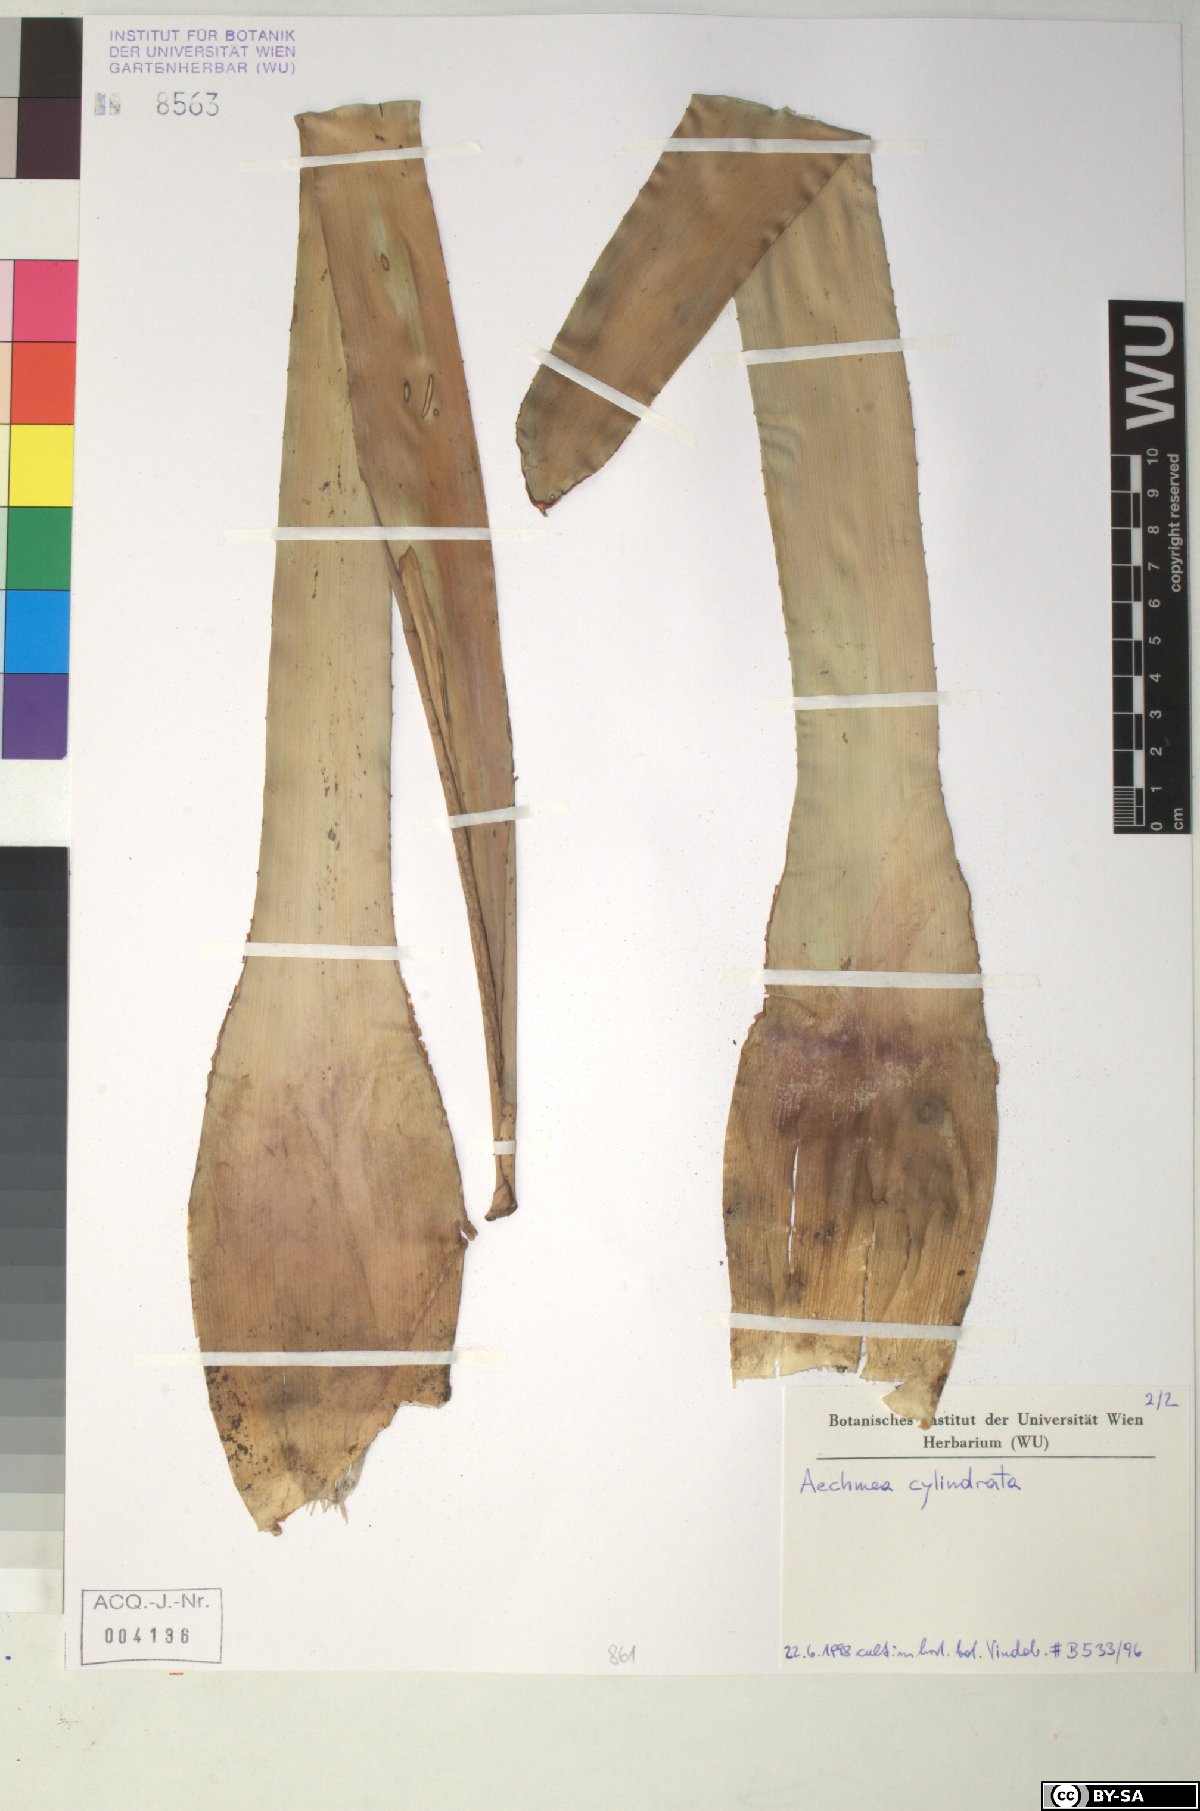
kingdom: Plantae
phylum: Tracheophyta
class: Liliopsida
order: Poales
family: Bromeliaceae
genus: Aechmea
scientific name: Aechmea angustifolia
